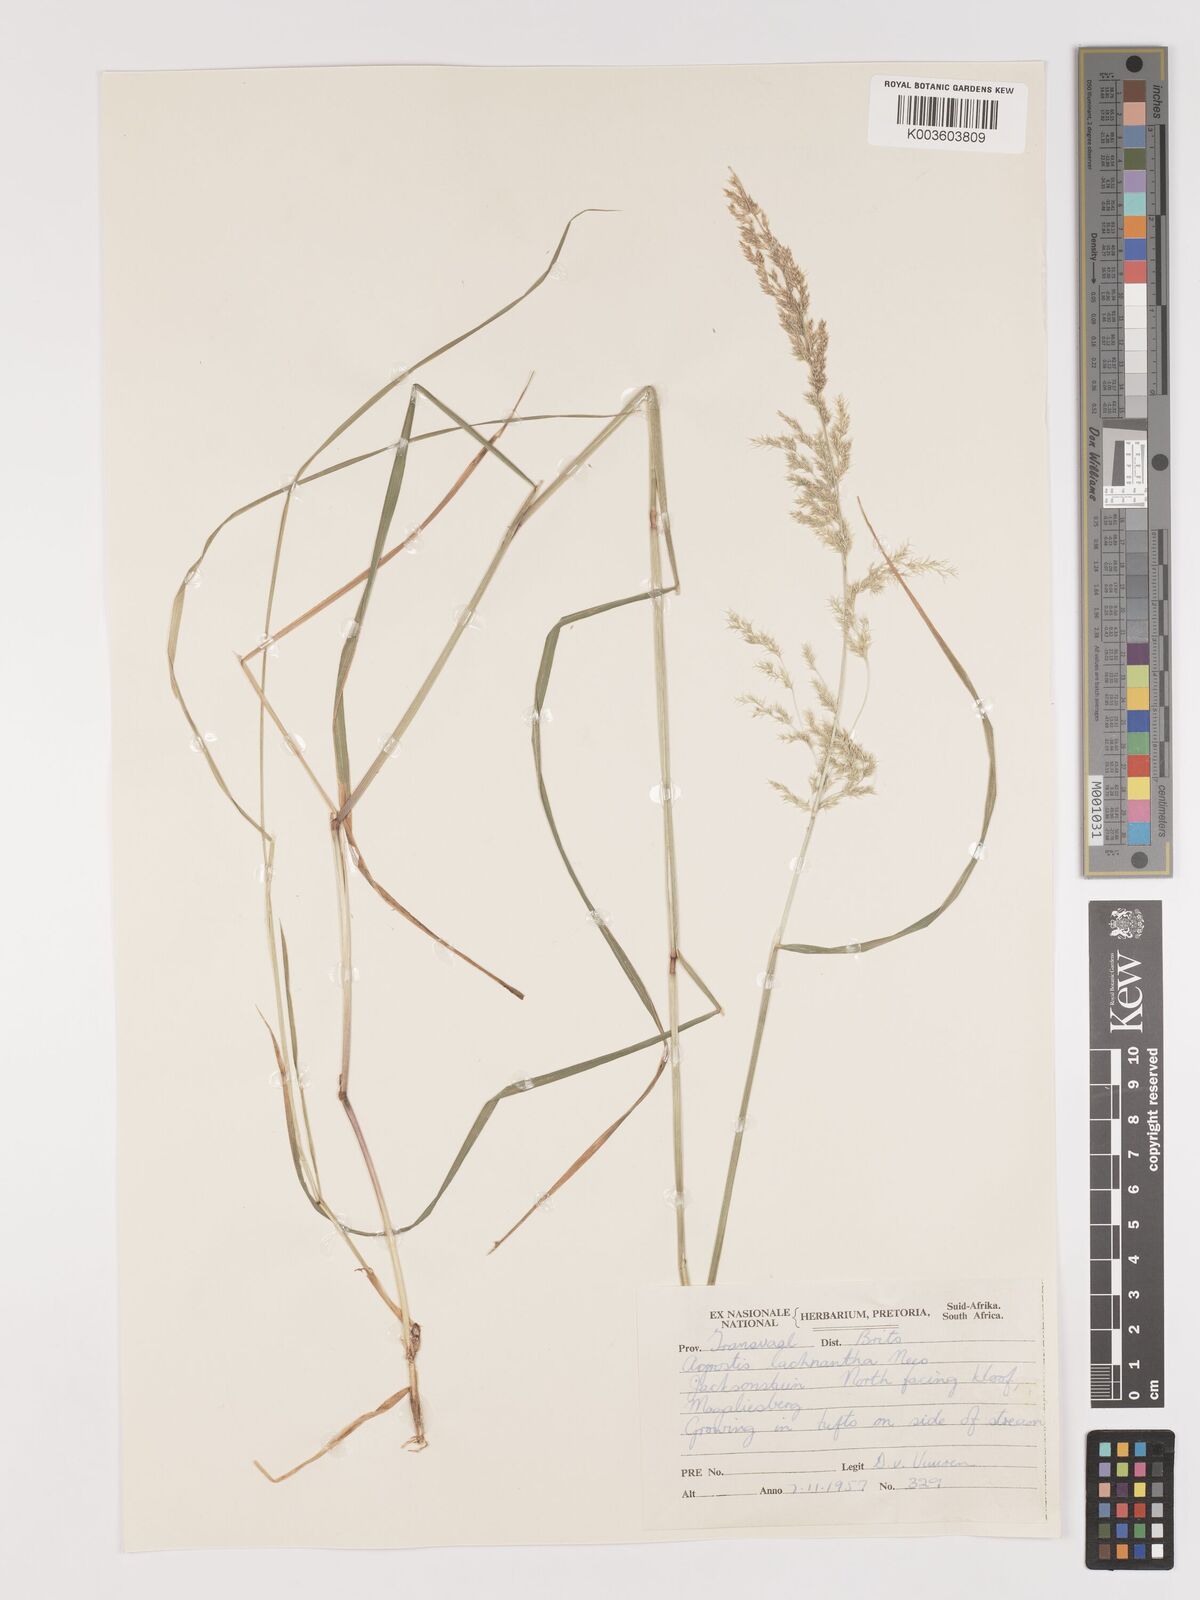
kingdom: Plantae
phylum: Tracheophyta
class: Liliopsida
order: Poales
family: Poaceae
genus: Lachnagrostis
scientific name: Lachnagrostis lachnantha
